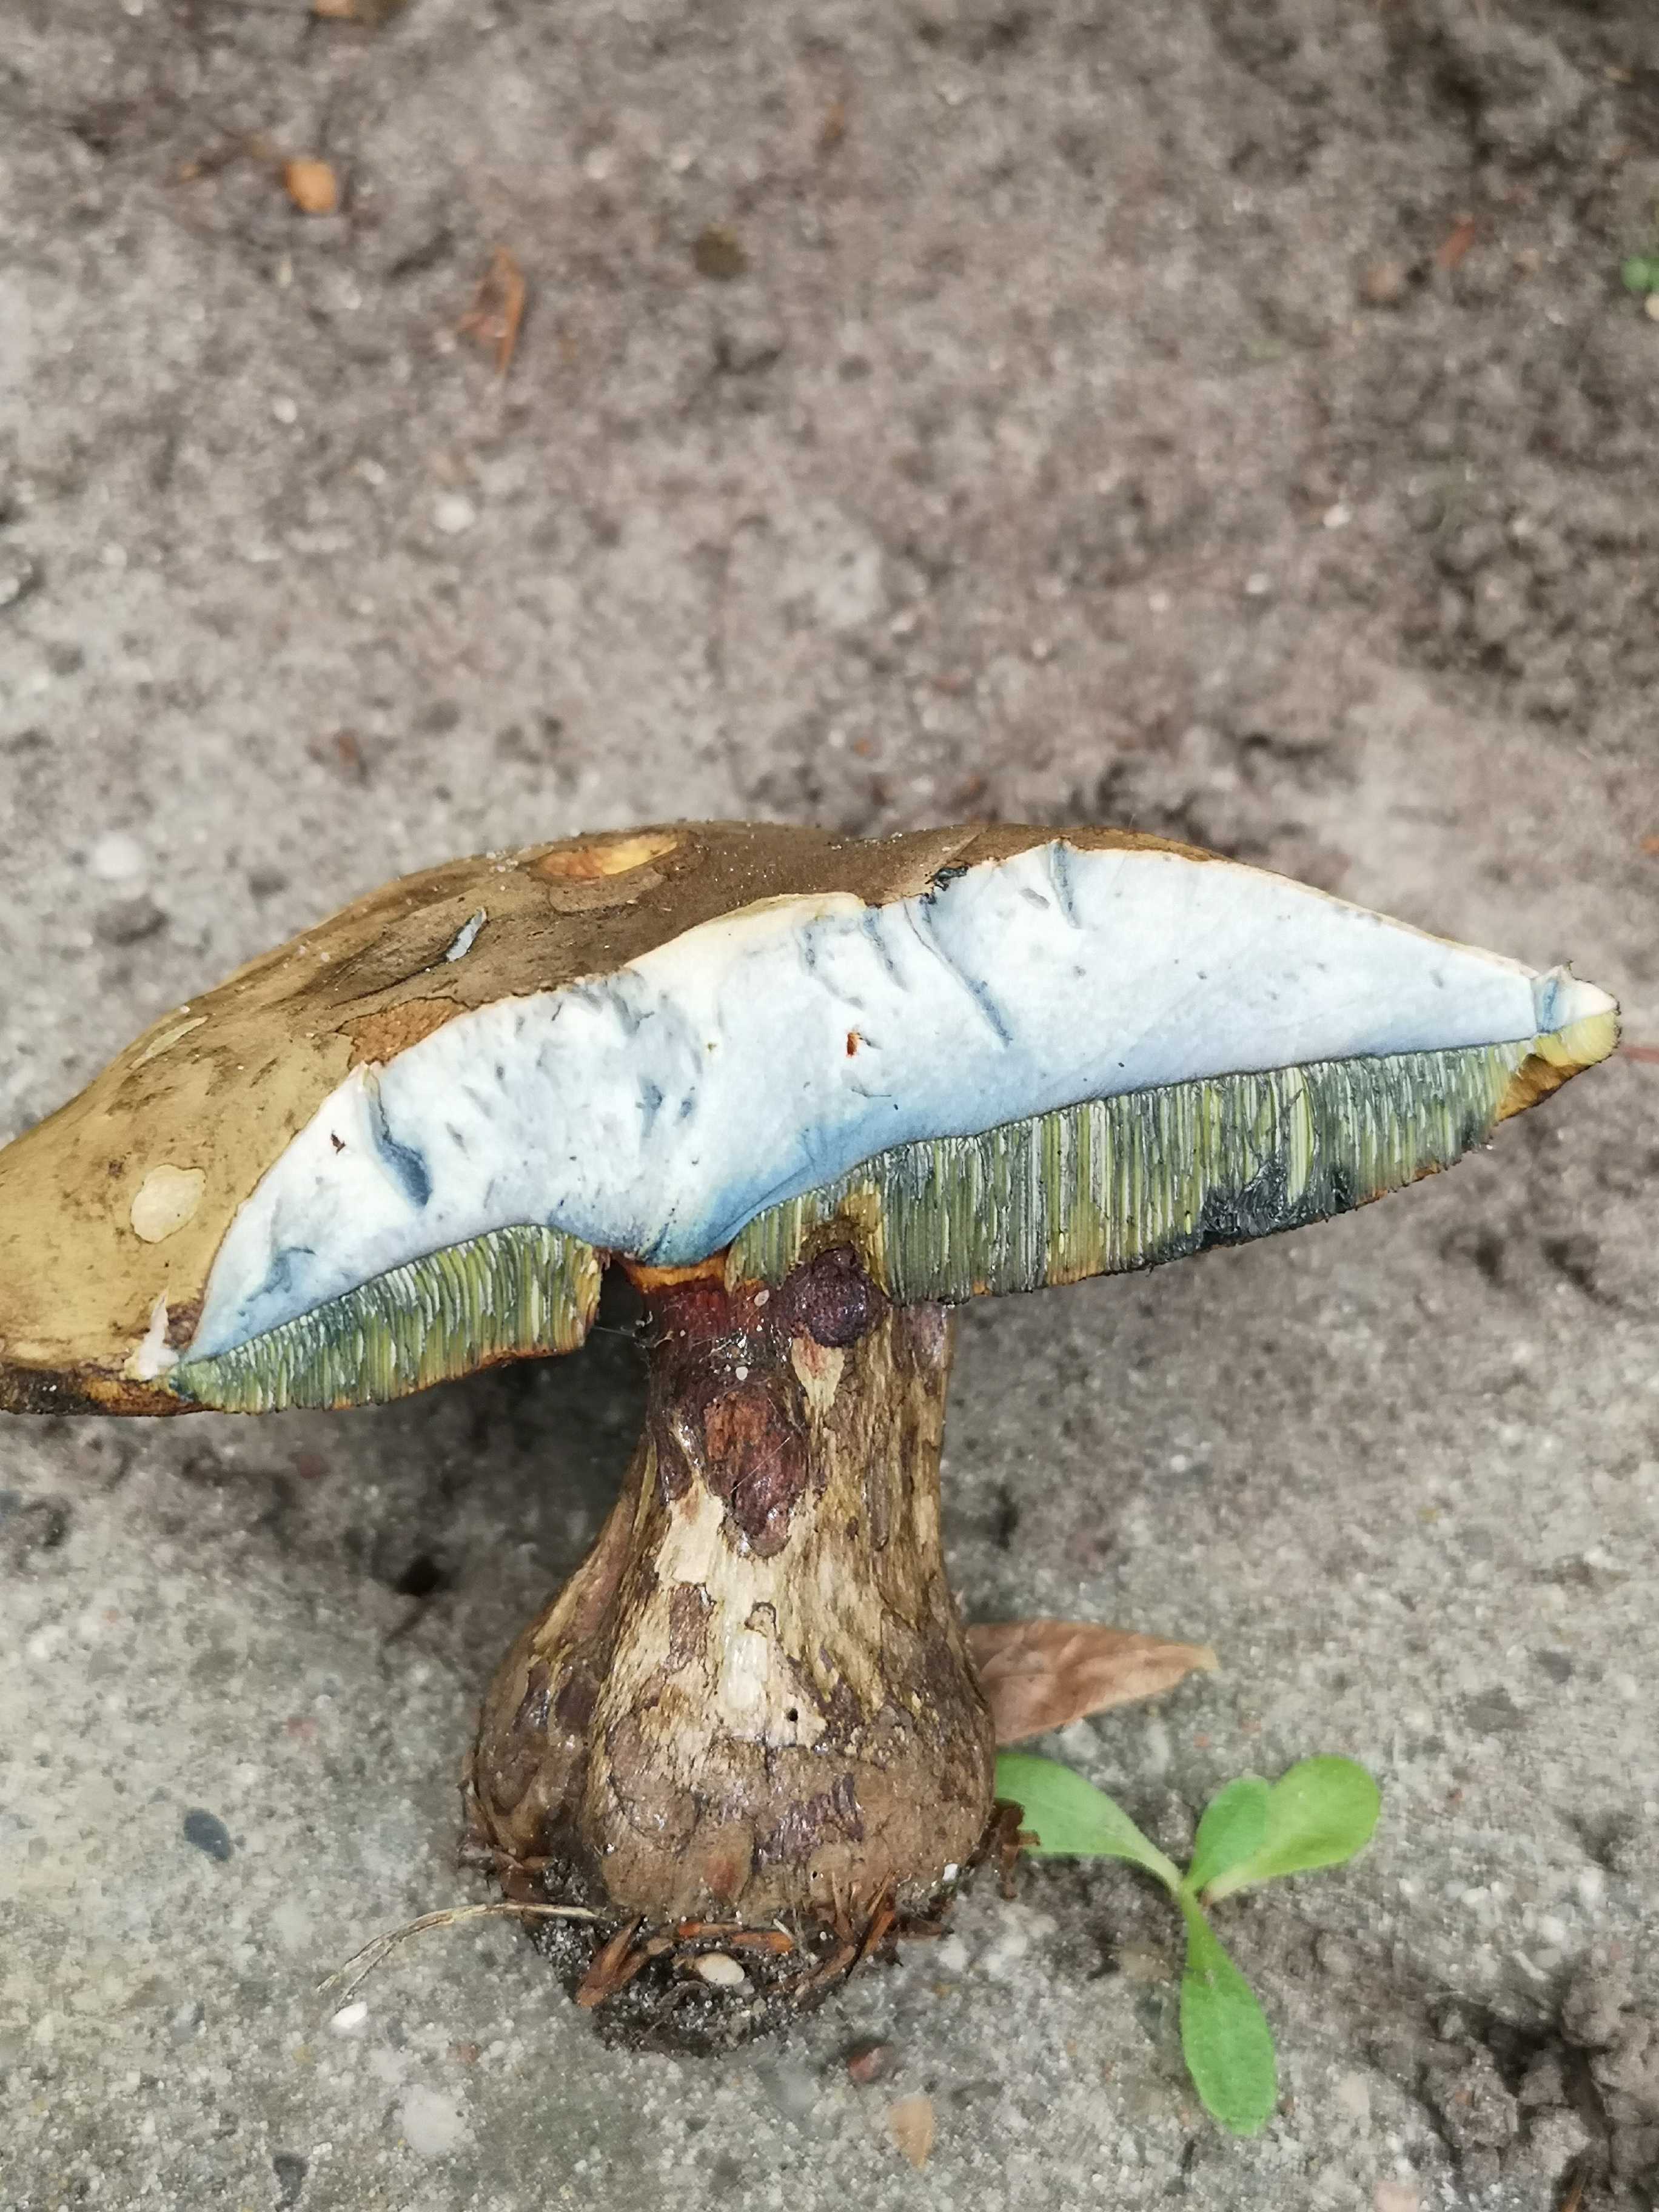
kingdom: Fungi
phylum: Basidiomycota
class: Agaricomycetes
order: Boletales
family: Boletaceae
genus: Suillellus
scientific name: Suillellus luridus
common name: netstokket indigorørhat
